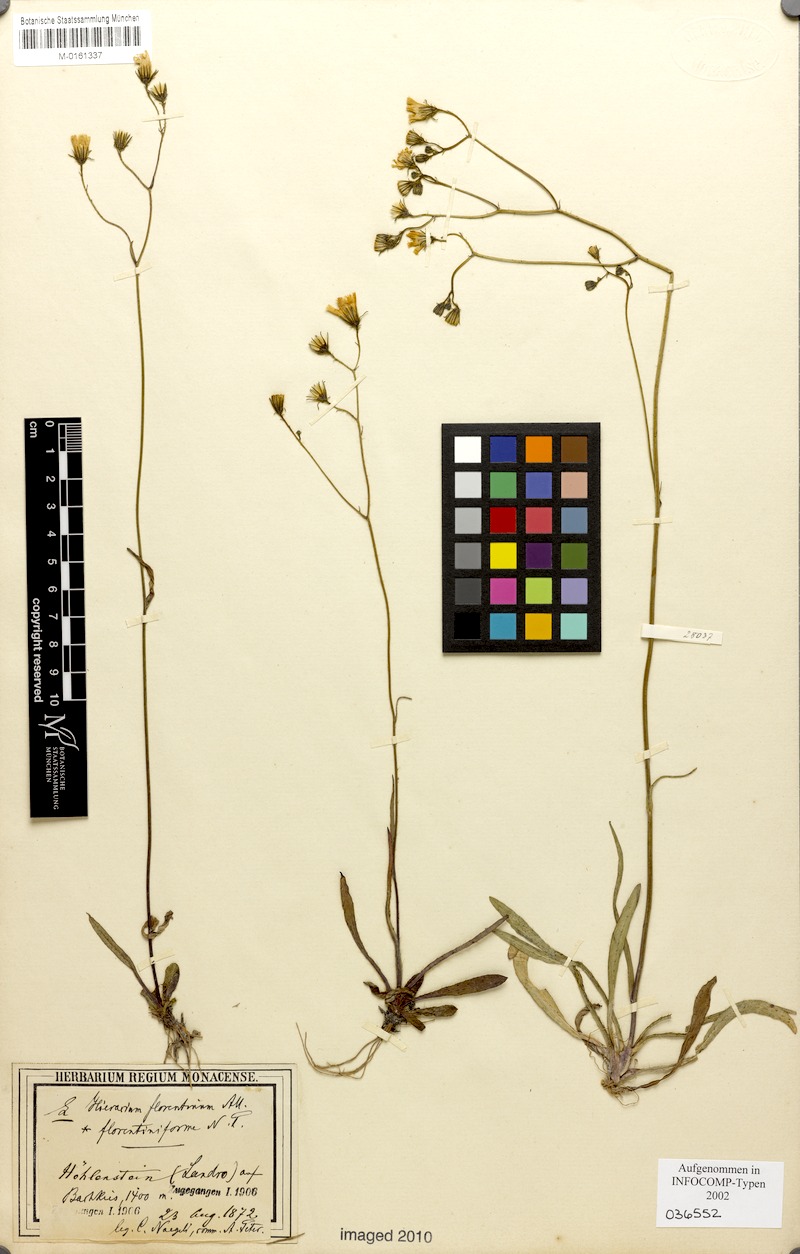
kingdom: Plantae
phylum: Tracheophyta
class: Magnoliopsida
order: Asterales
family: Asteraceae
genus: Pilosella
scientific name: Pilosella piloselloides
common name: Glaucous king-devil
